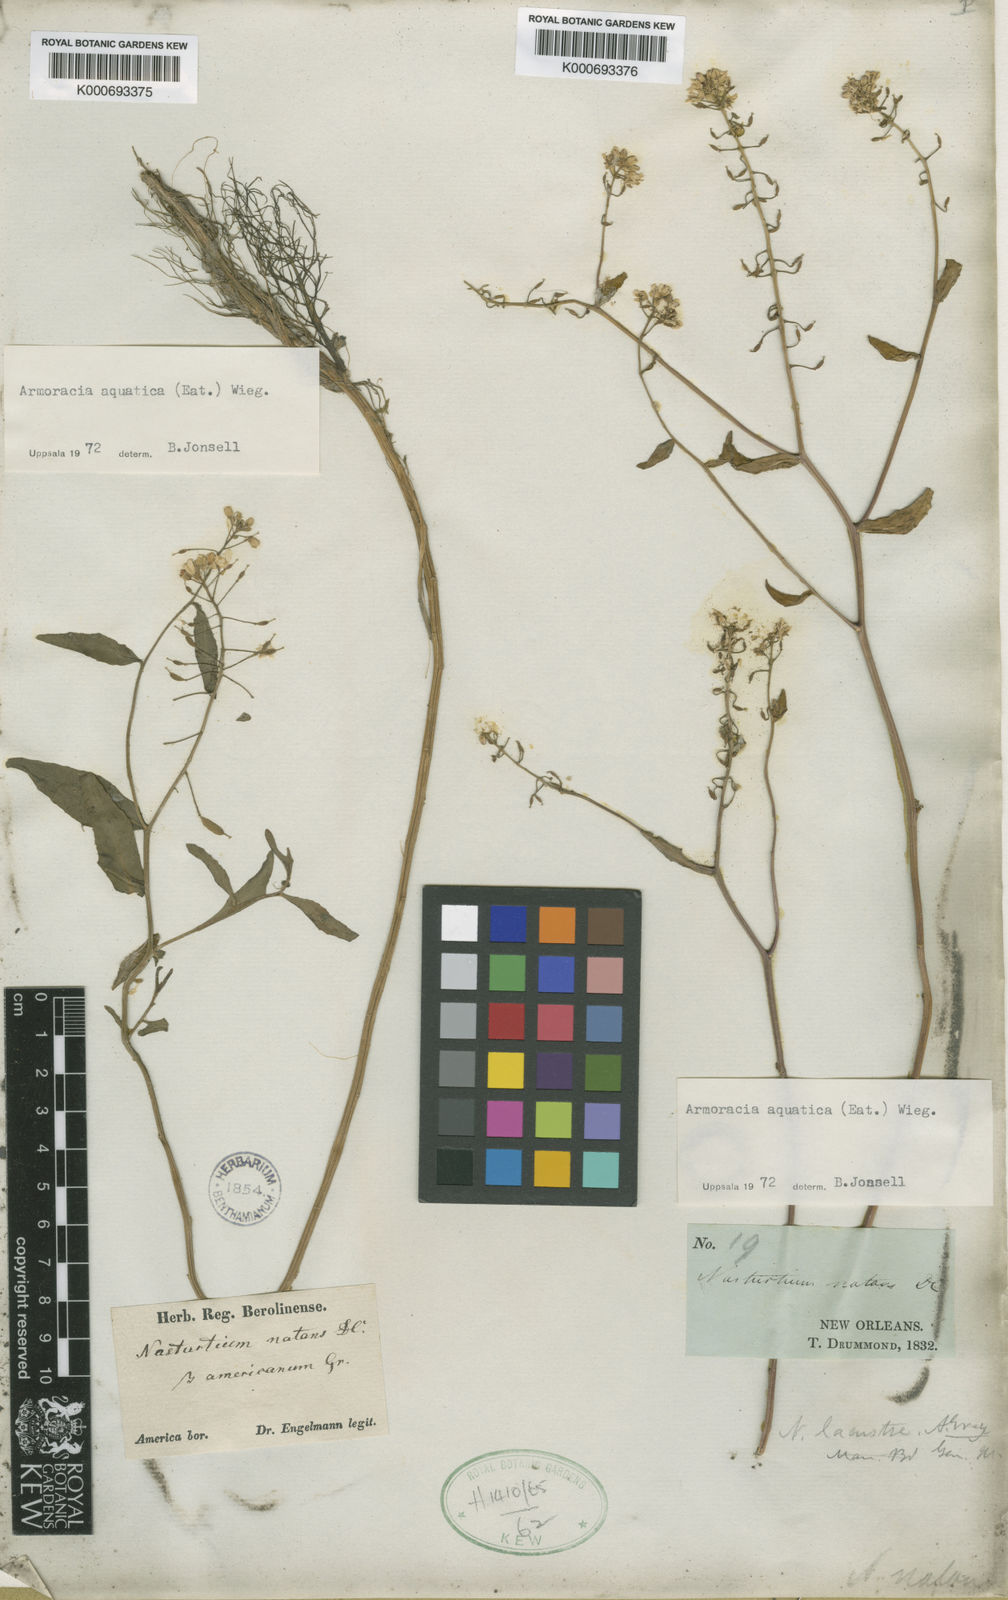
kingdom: Plantae
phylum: Tracheophyta
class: Magnoliopsida
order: Brassicales
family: Brassicaceae
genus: Rorippa
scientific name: Rorippa
